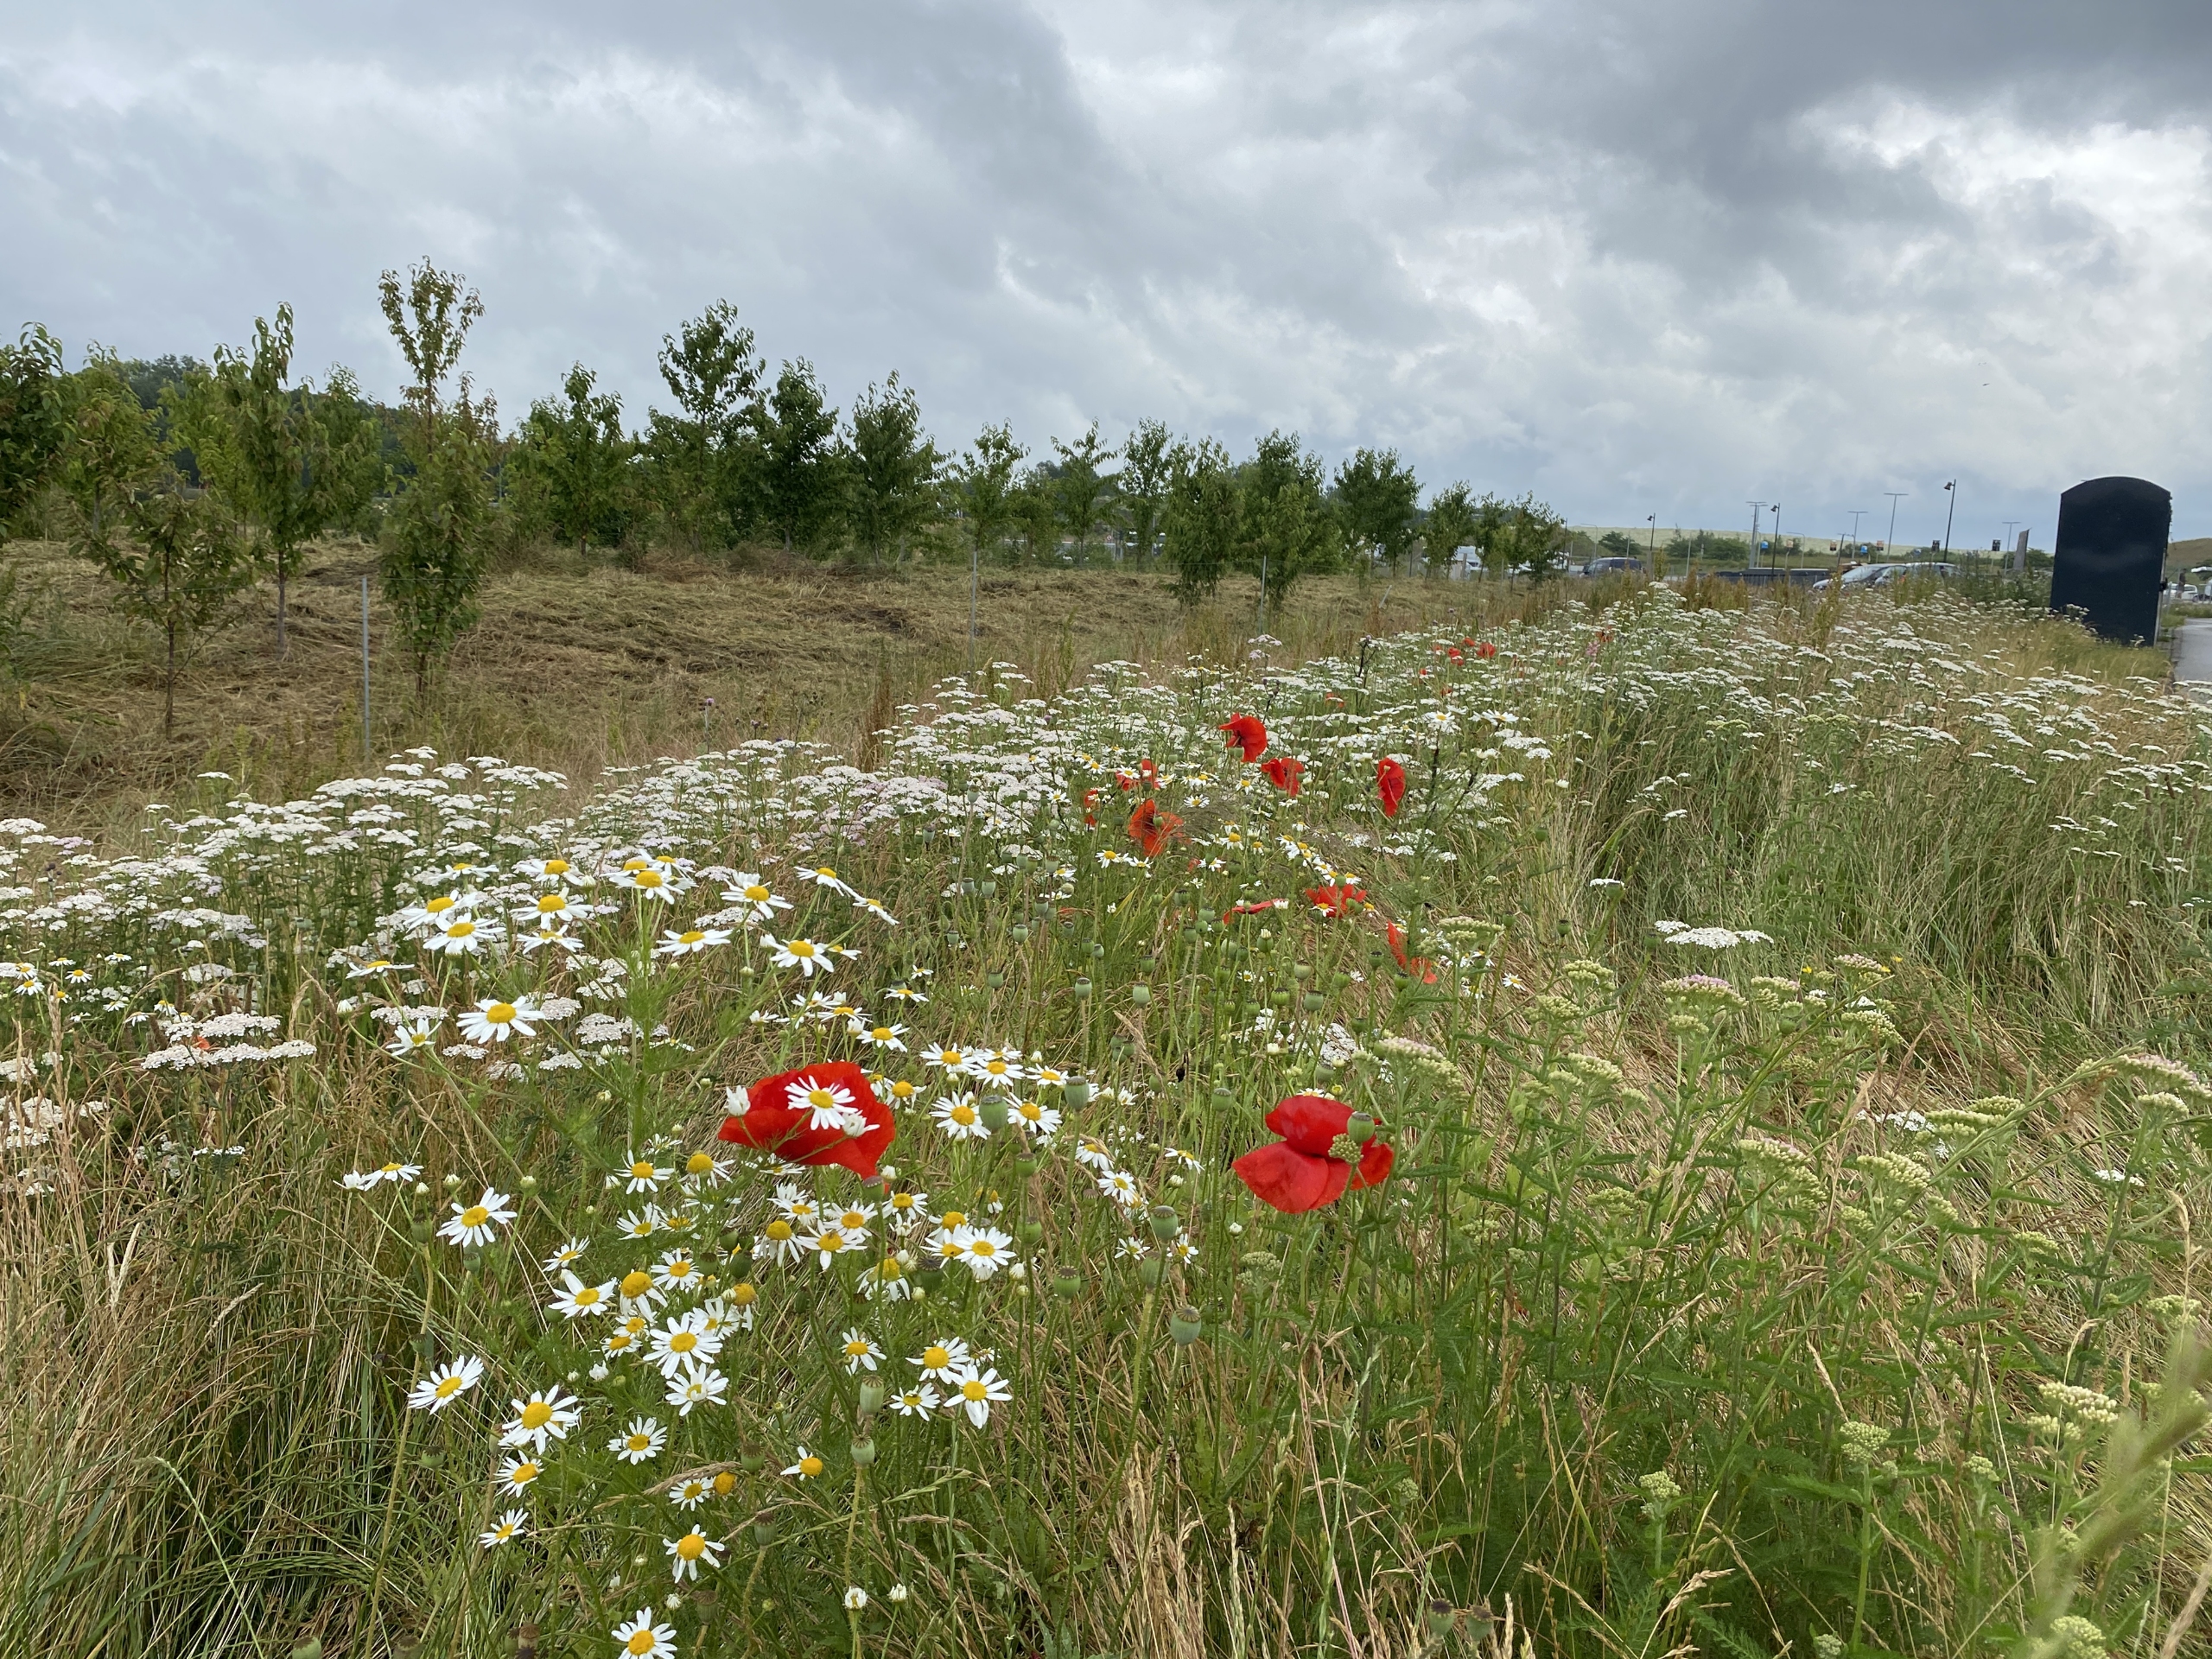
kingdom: Plantae
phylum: Tracheophyta
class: Magnoliopsida
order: Ranunculales
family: Papaveraceae
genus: Papaver
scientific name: Papaver rhoeas
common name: Korn-valmue
